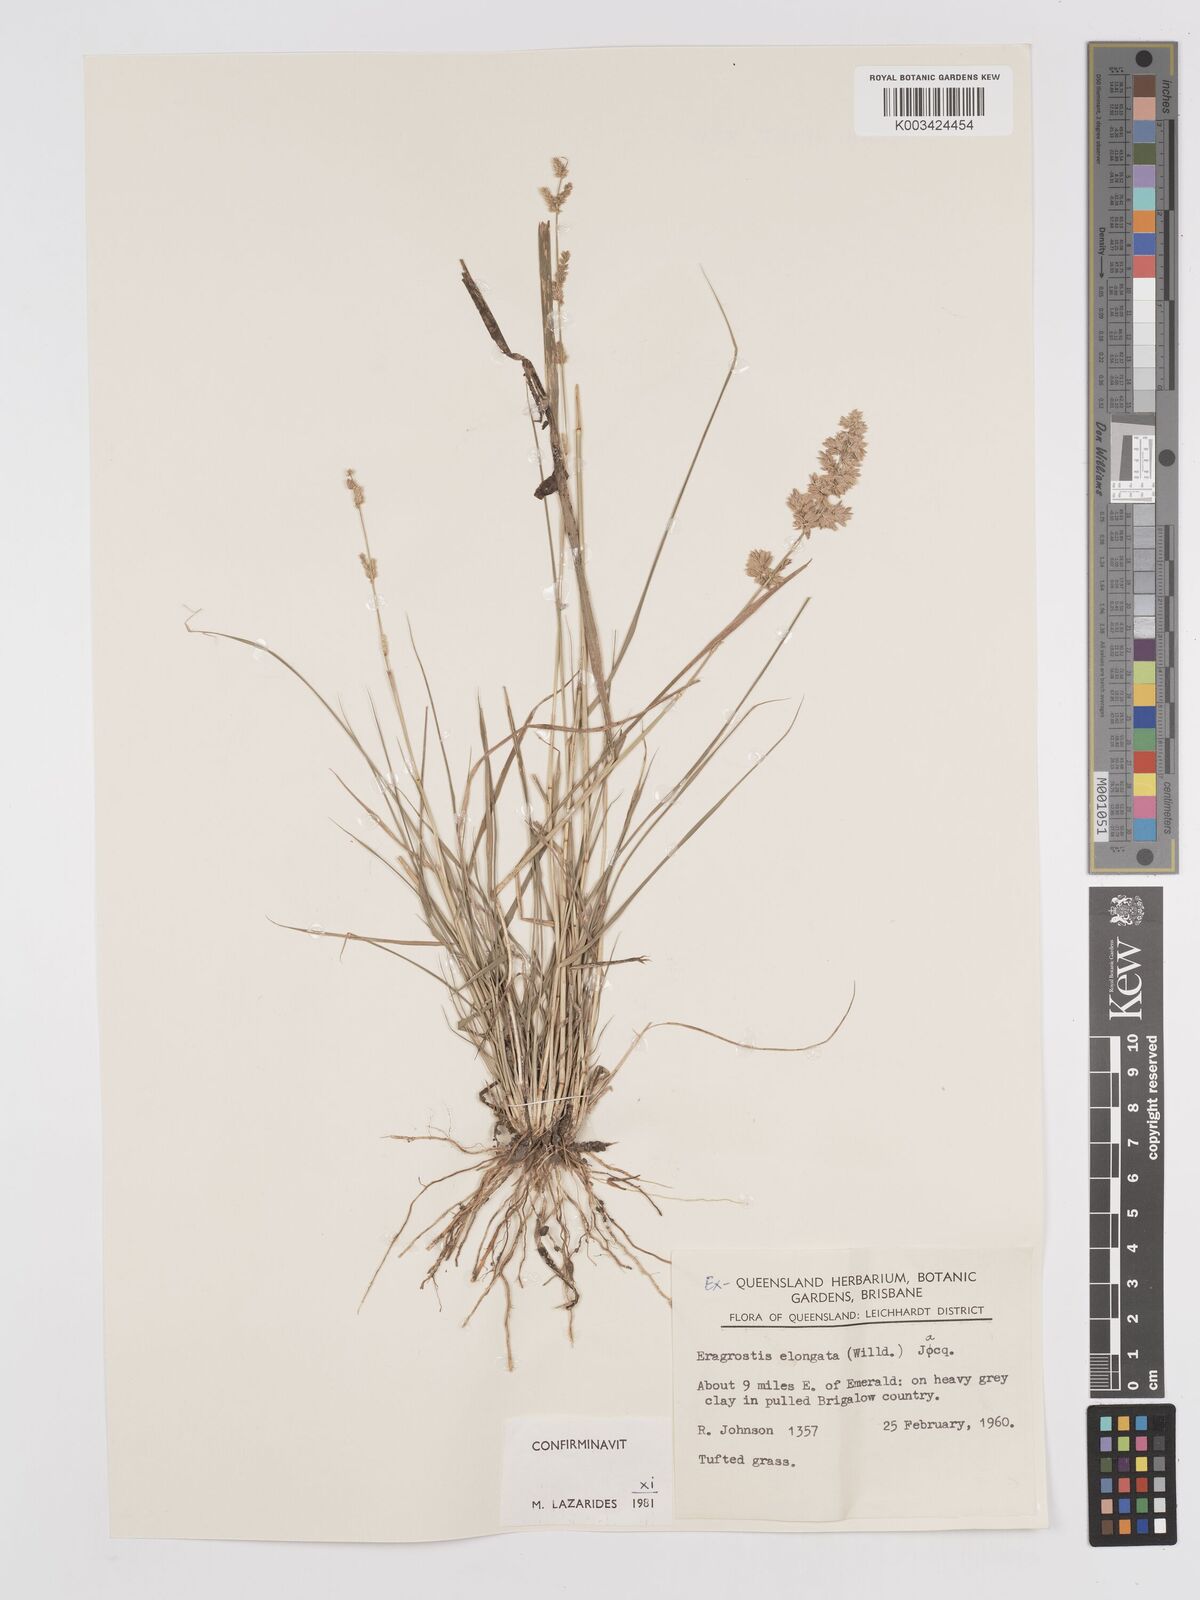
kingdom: Plantae
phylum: Tracheophyta
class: Liliopsida
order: Poales
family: Poaceae
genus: Eragrostis
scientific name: Eragrostis elongata
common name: Long lovegrass
